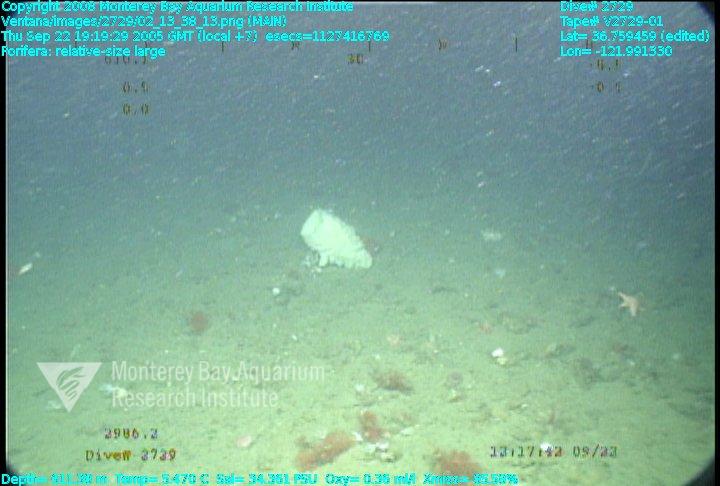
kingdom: Animalia
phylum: Porifera
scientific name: Porifera
